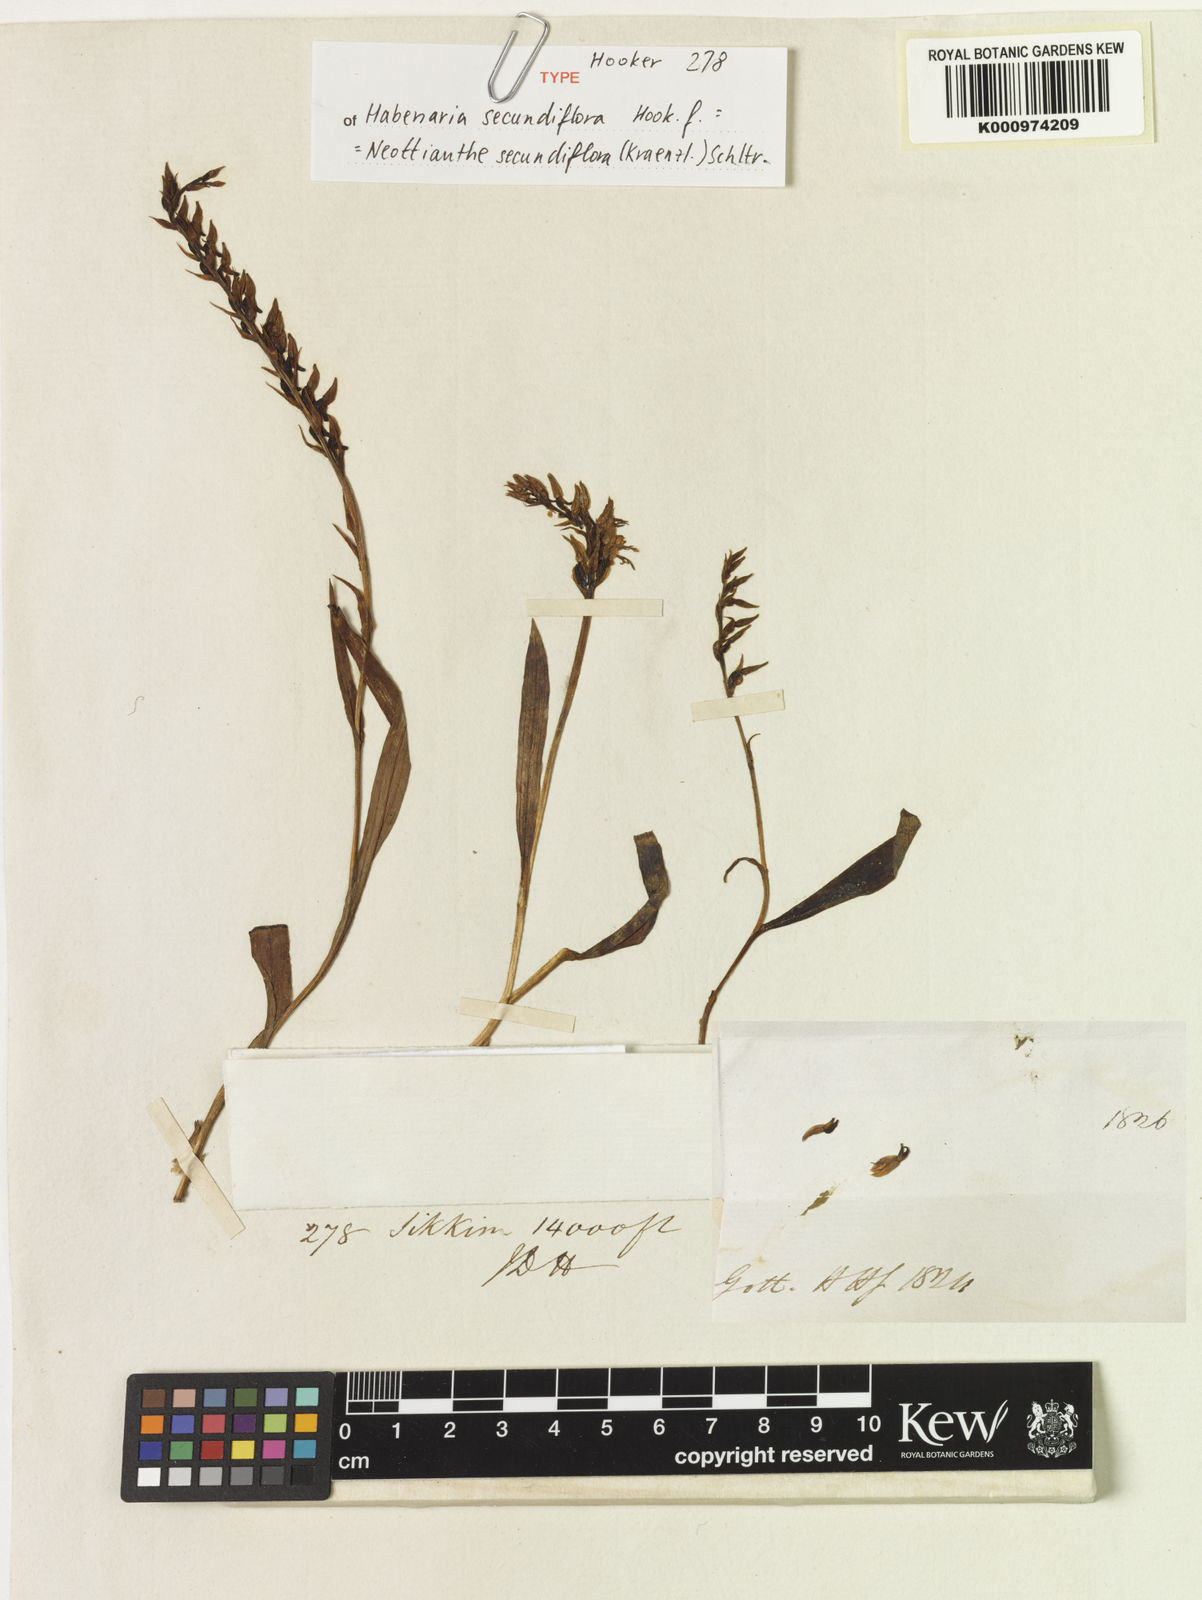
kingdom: Plantae
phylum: Tracheophyta
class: Liliopsida
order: Asparagales
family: Orchidaceae
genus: Hemipilia
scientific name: Hemipilia secundiflora
